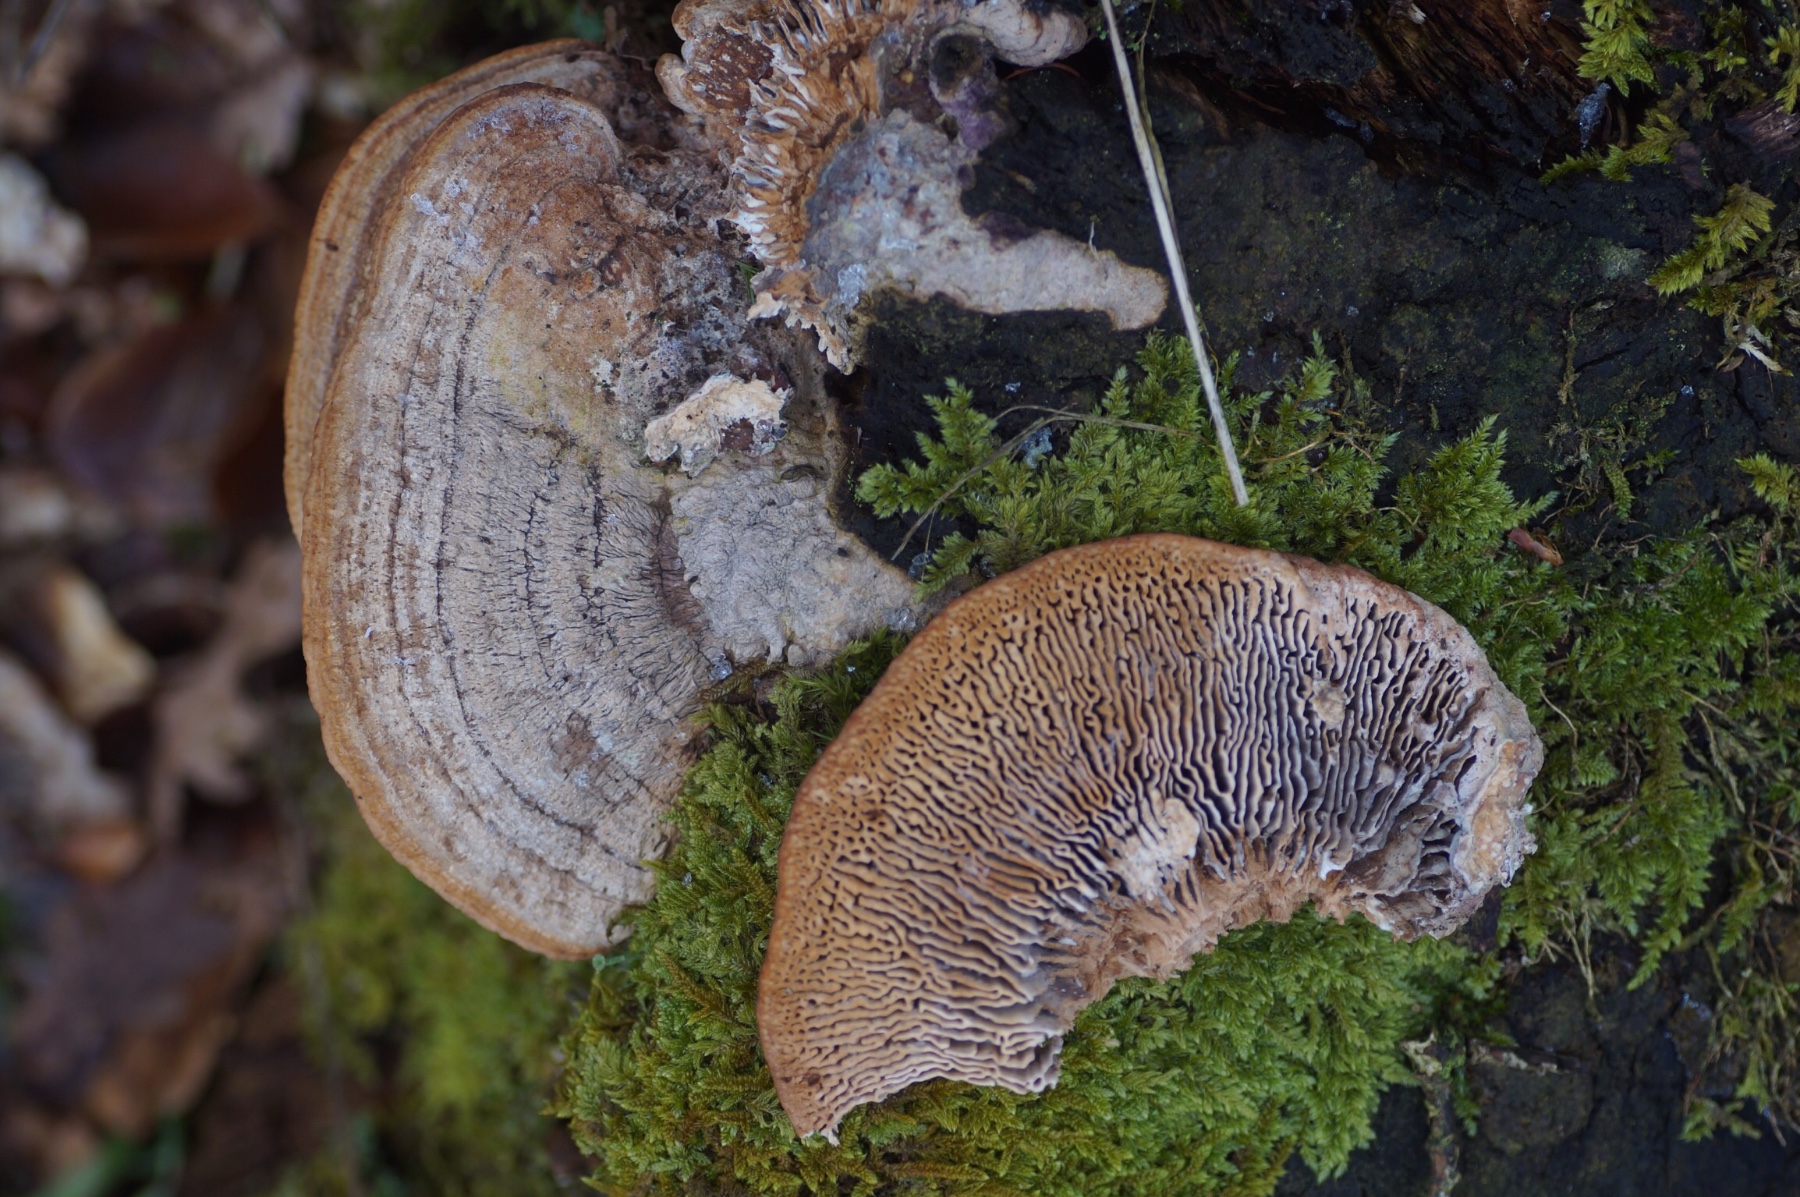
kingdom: Fungi
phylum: Basidiomycota
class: Agaricomycetes
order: Polyporales
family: Fomitopsidaceae
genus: Daedalea
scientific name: Daedalea quercina
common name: ege-labyrintsvamp
